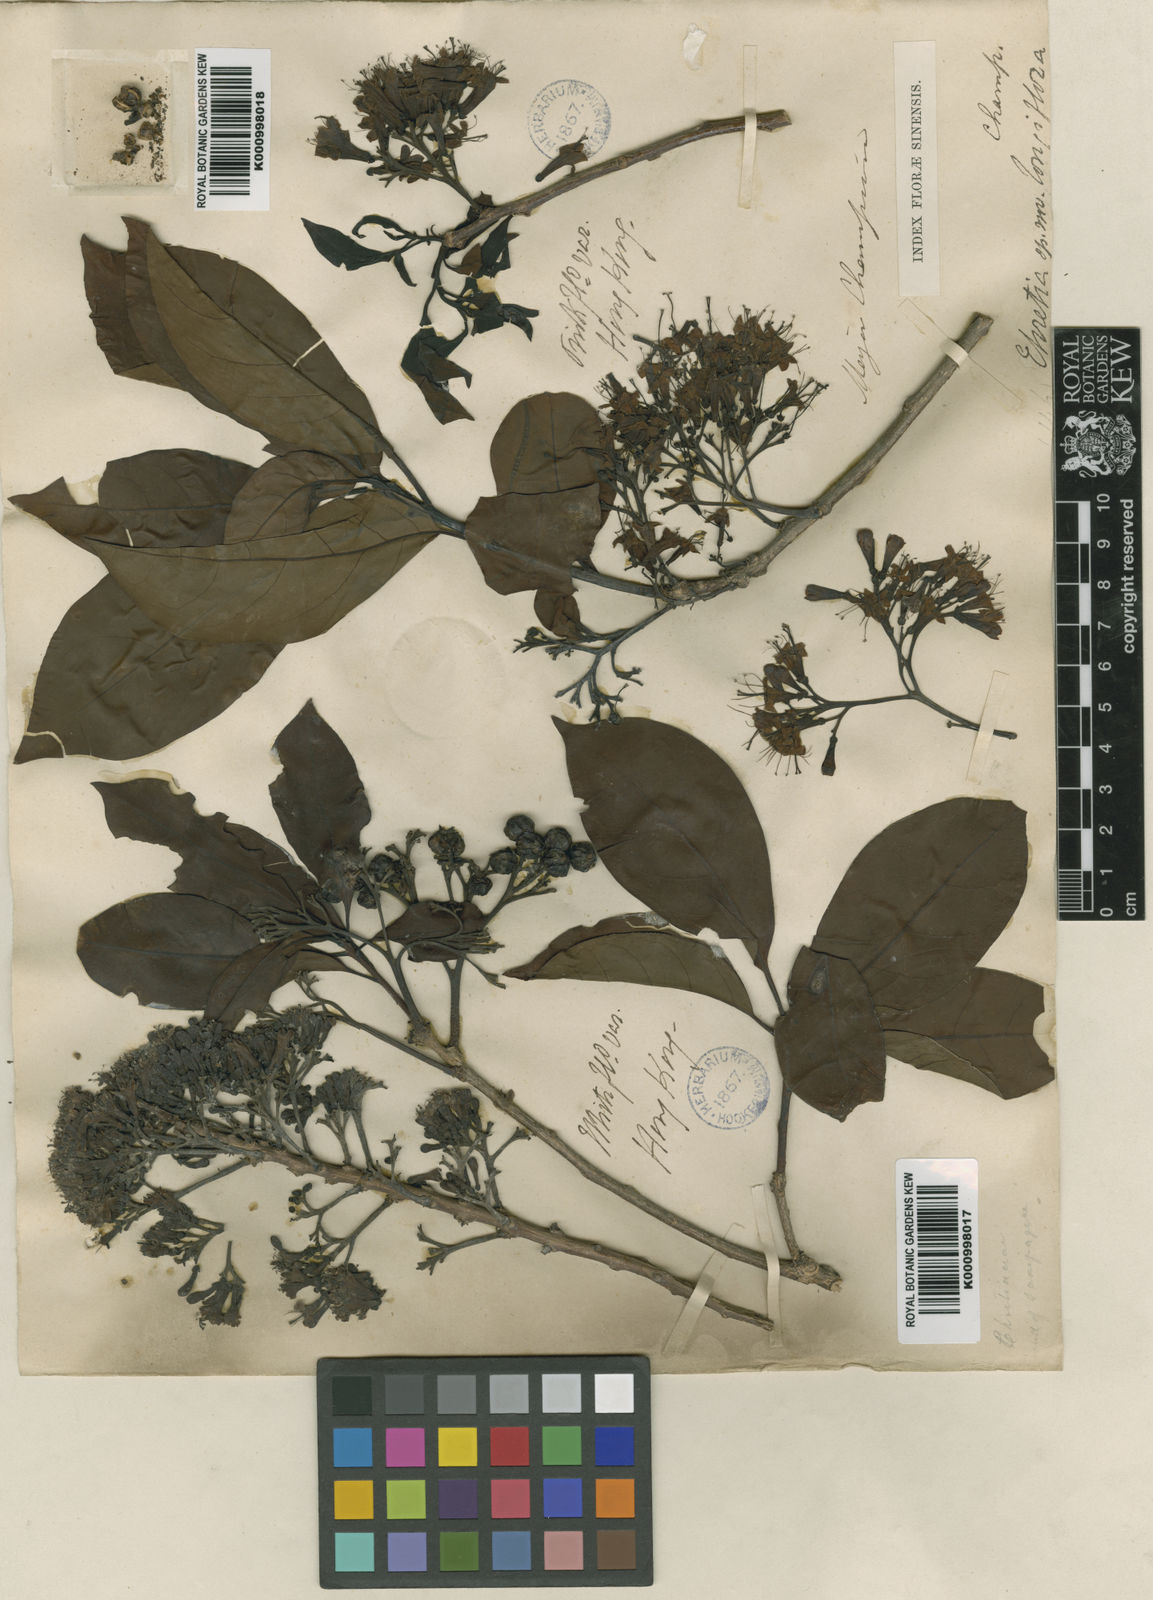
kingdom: Plantae
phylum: Tracheophyta
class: Magnoliopsida
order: Boraginales
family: Ehretiaceae
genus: Ehretia
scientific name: Ehretia longiflora
